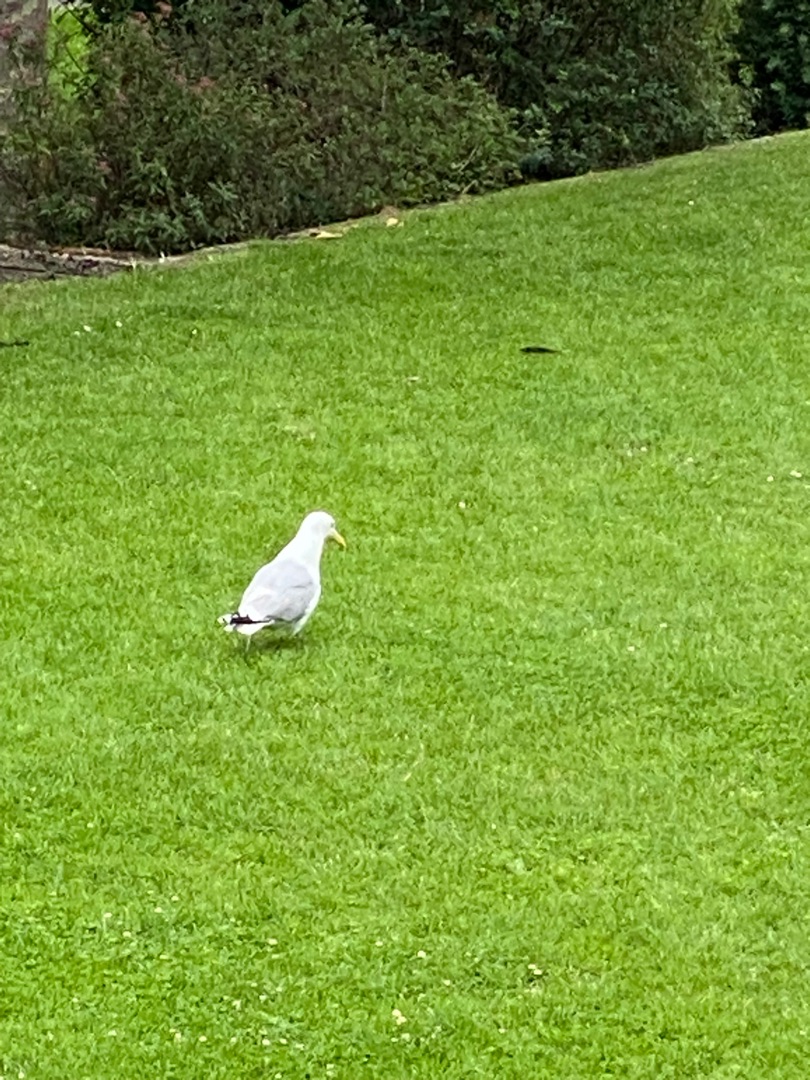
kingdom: Animalia
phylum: Chordata
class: Aves
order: Charadriiformes
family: Laridae
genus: Larus
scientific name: Larus argentatus
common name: Sølvmåge
